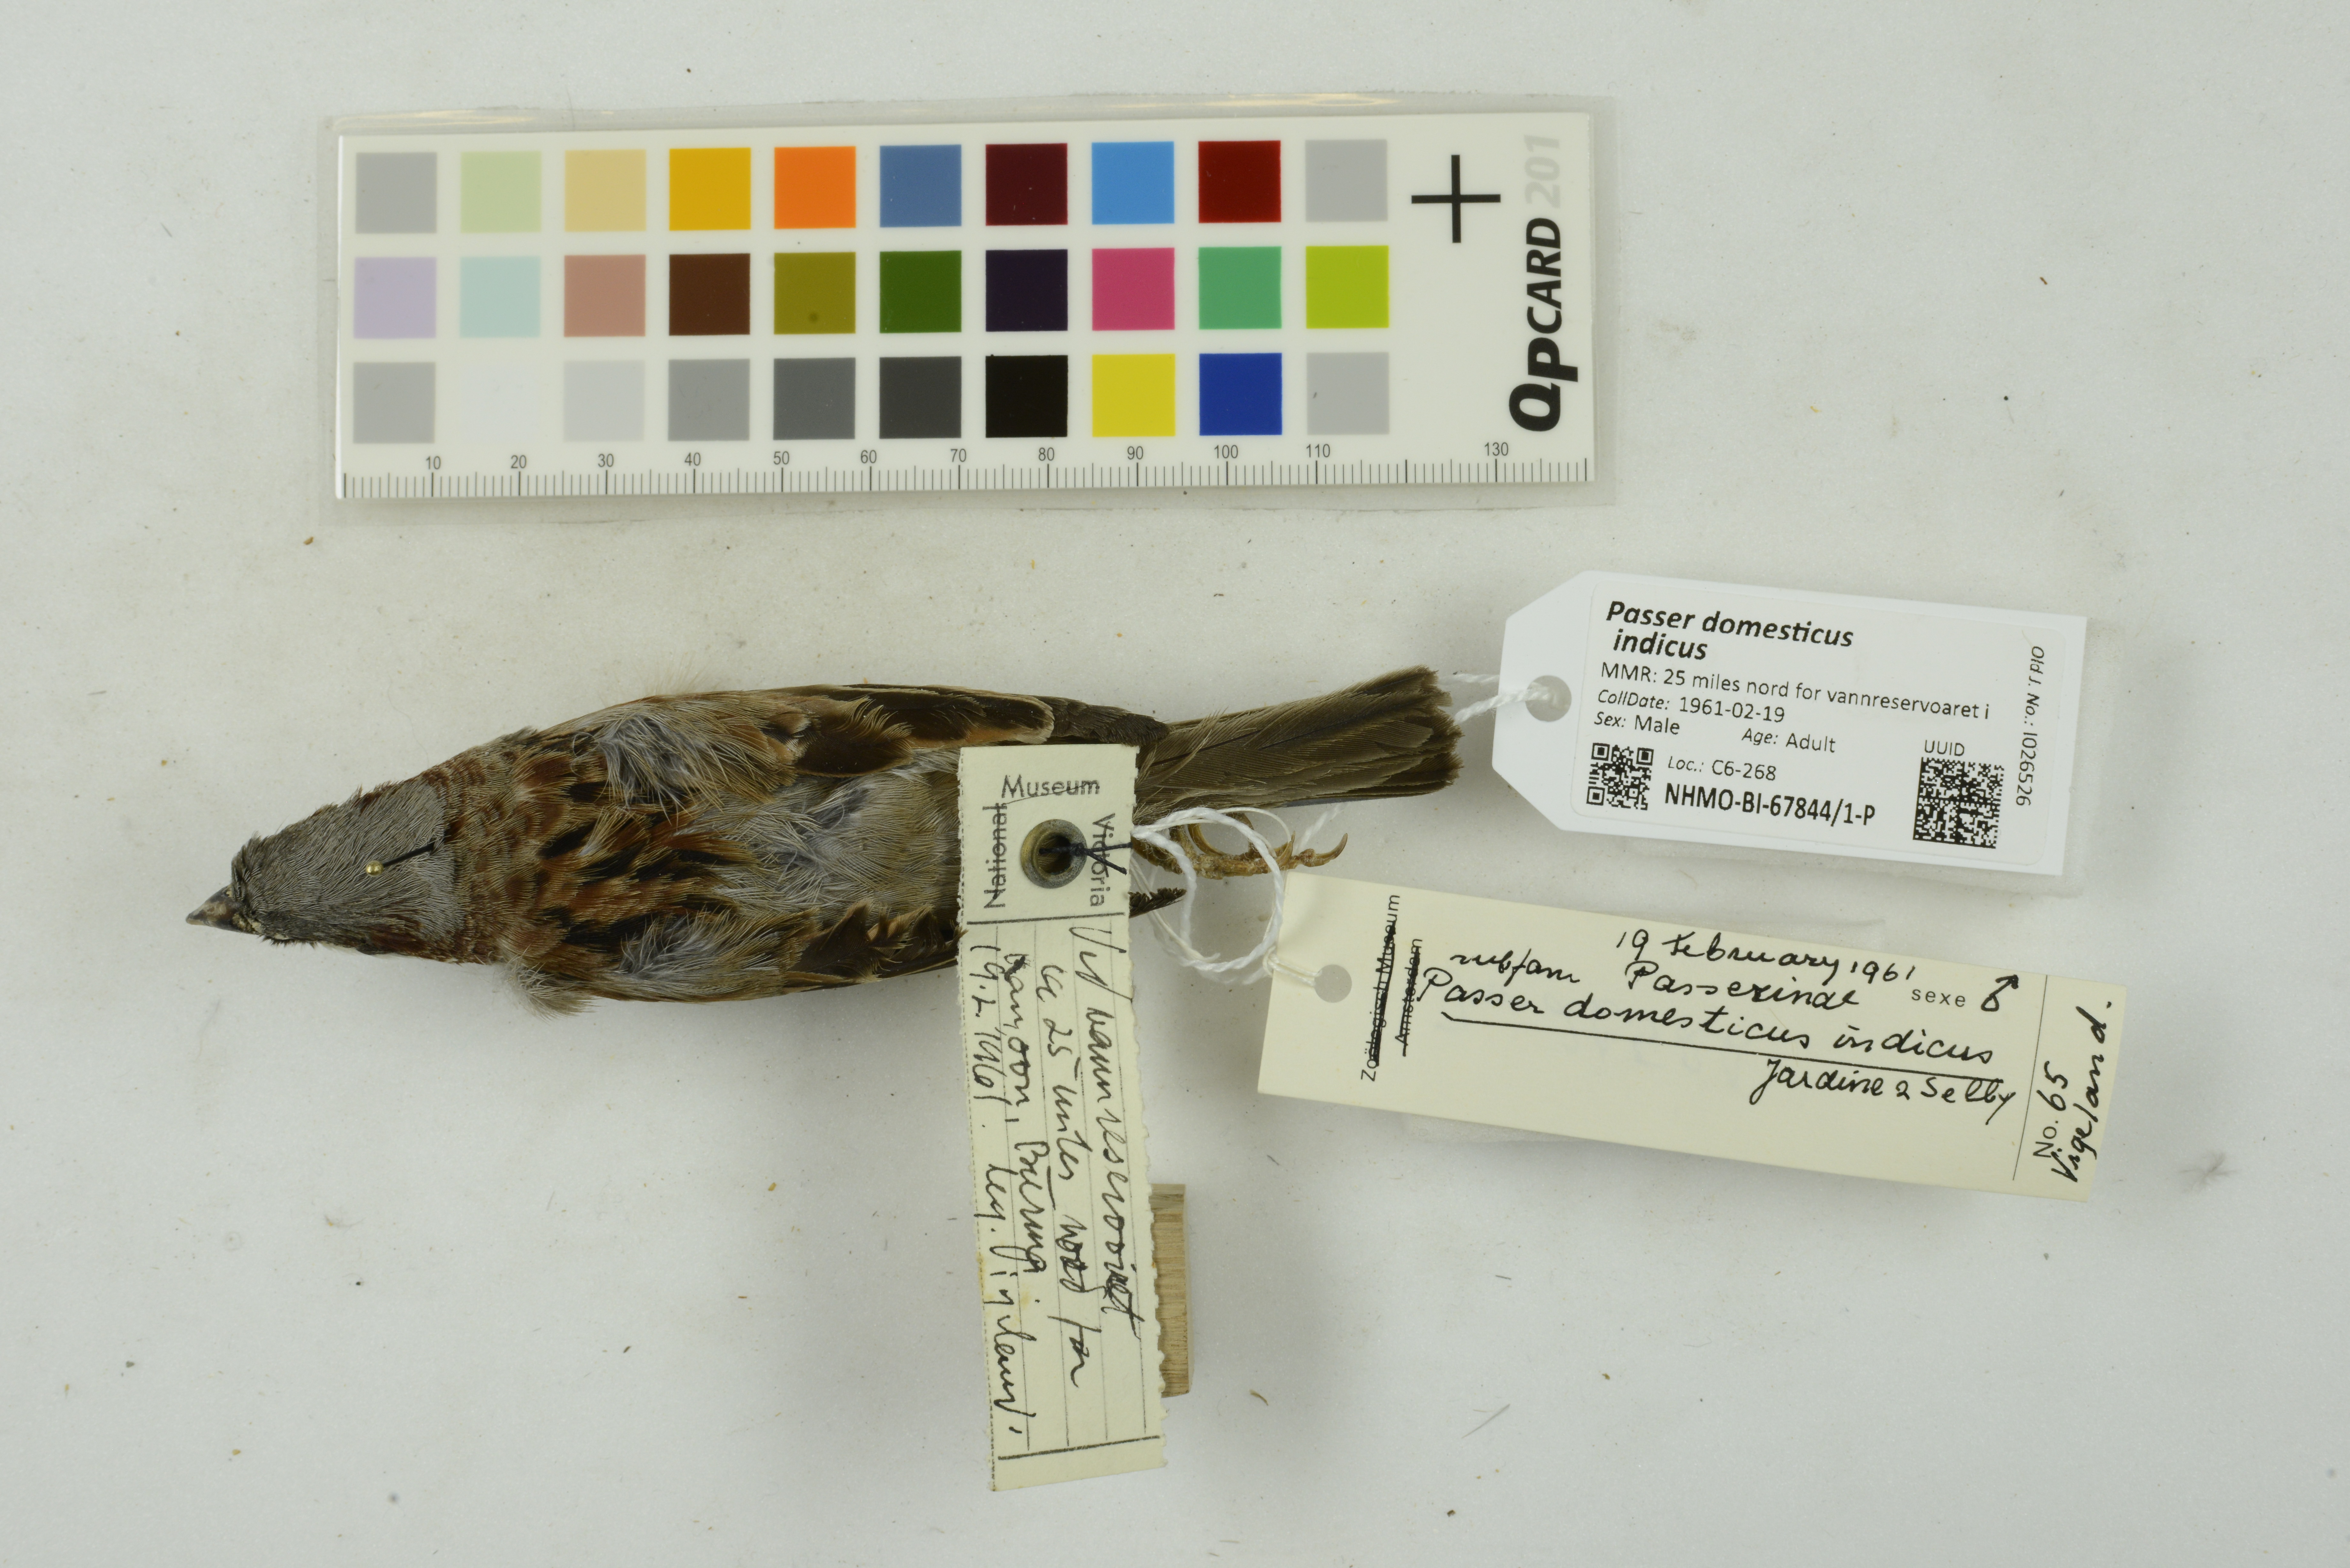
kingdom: Animalia
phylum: Chordata
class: Aves
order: Passeriformes
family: Passeridae
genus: Passer
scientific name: Passer domesticus
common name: House sparrow
